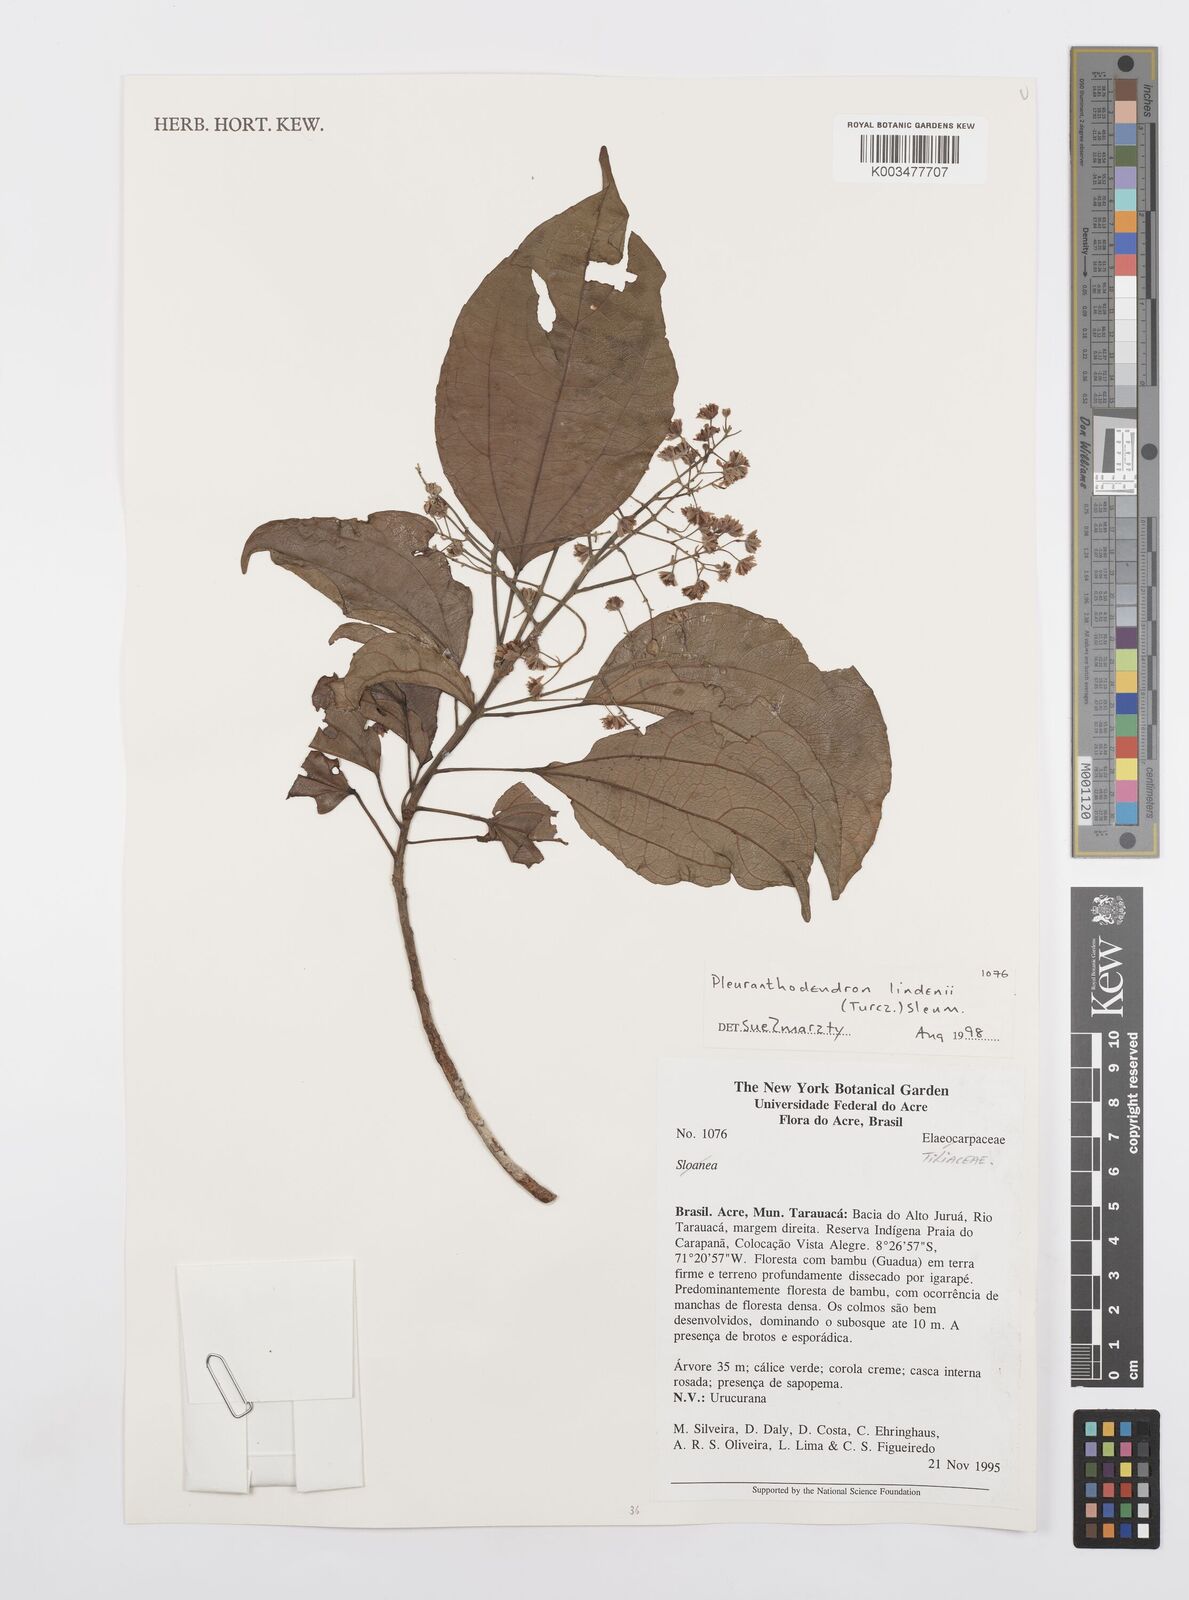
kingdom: Plantae
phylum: Tracheophyta
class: Magnoliopsida
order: Malpighiales
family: Salicaceae
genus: Pleuranthodendron
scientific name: Pleuranthodendron lindenii
